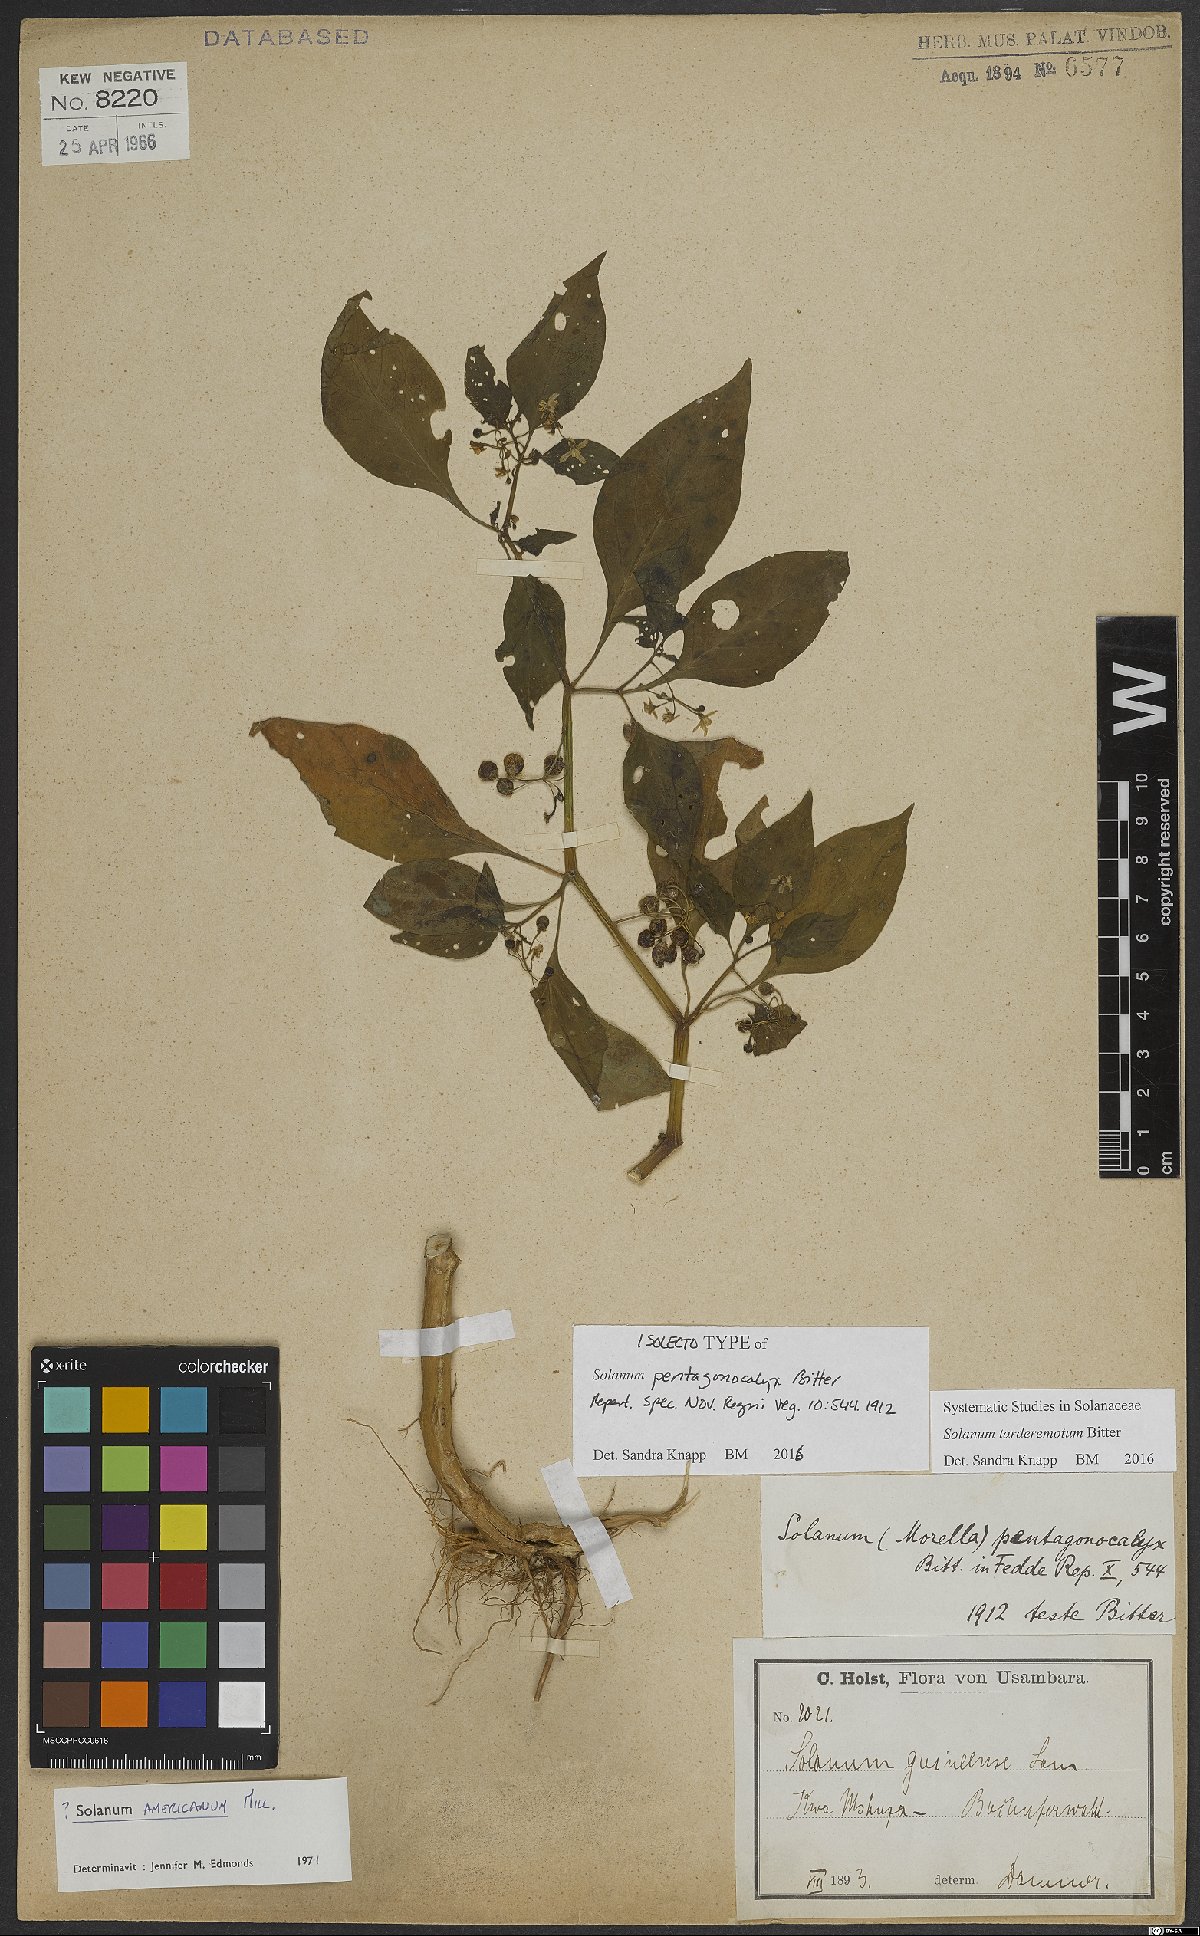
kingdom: Plantae
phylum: Tracheophyta
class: Magnoliopsida
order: Solanales
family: Solanaceae
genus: Solanum
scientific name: Solanum tarderemotum
